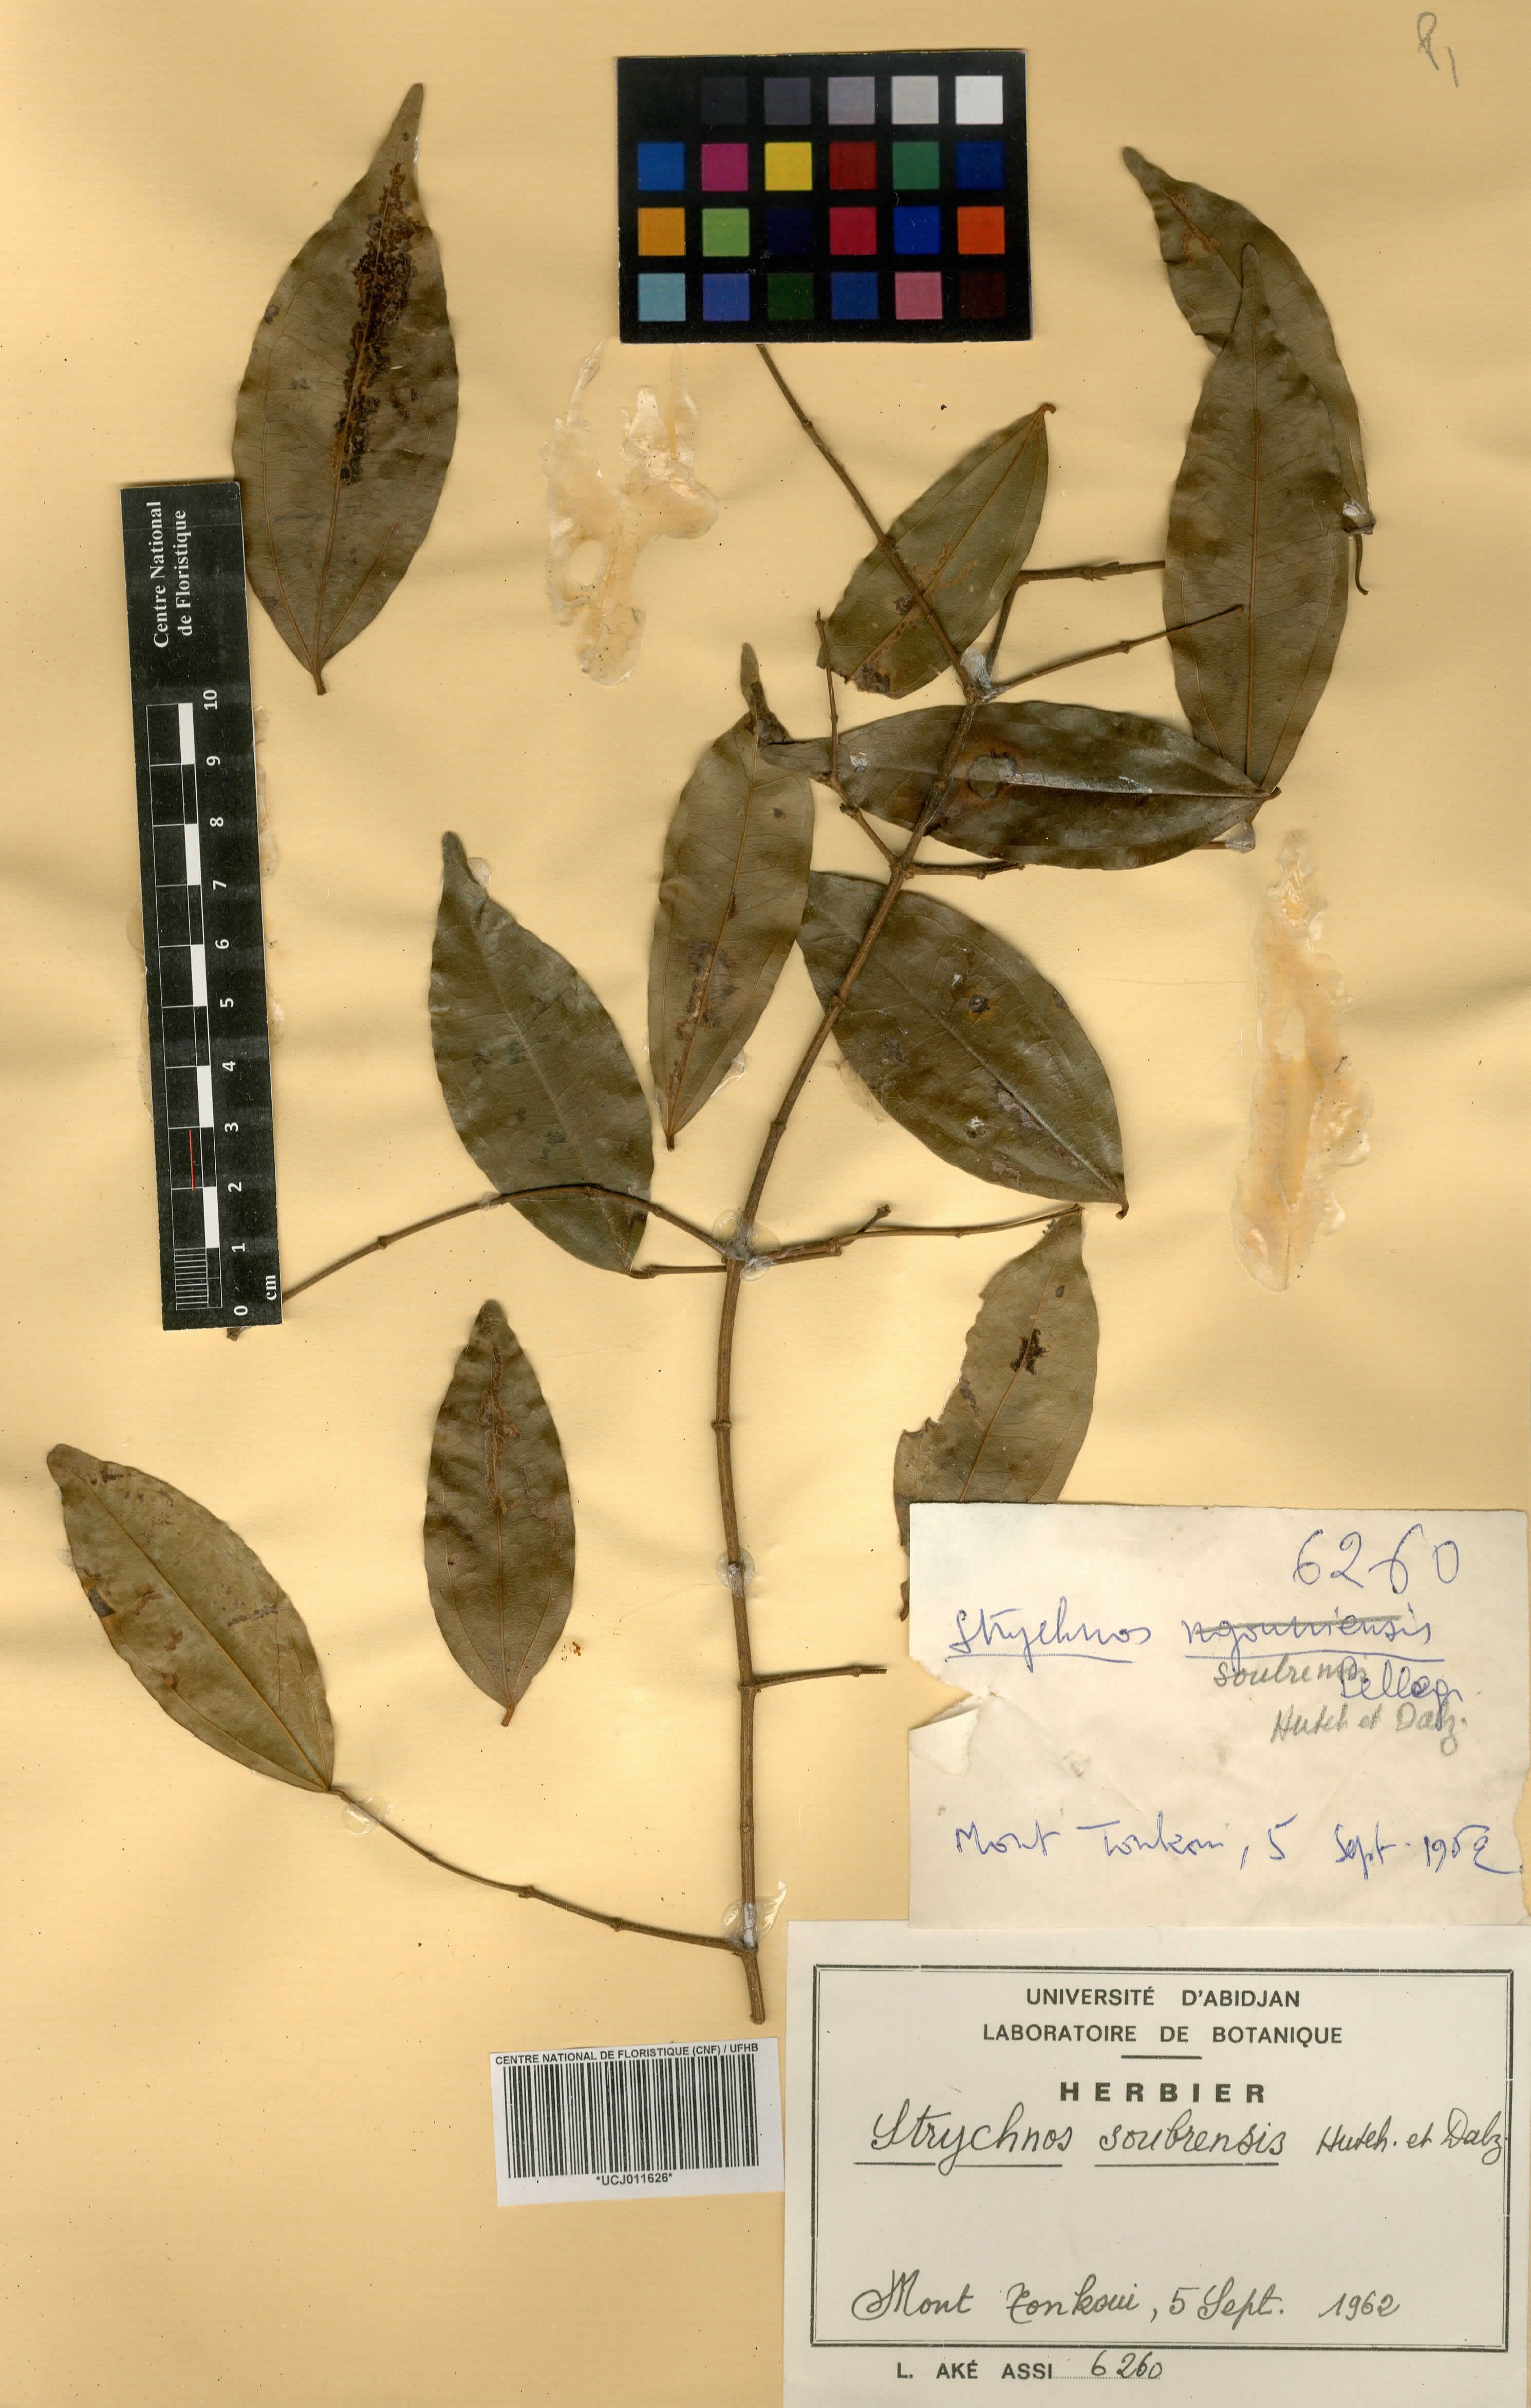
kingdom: Plantae
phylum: Tracheophyta
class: Magnoliopsida
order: Gentianales
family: Loganiaceae
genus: Strychnos
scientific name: Strychnos soubrensis
